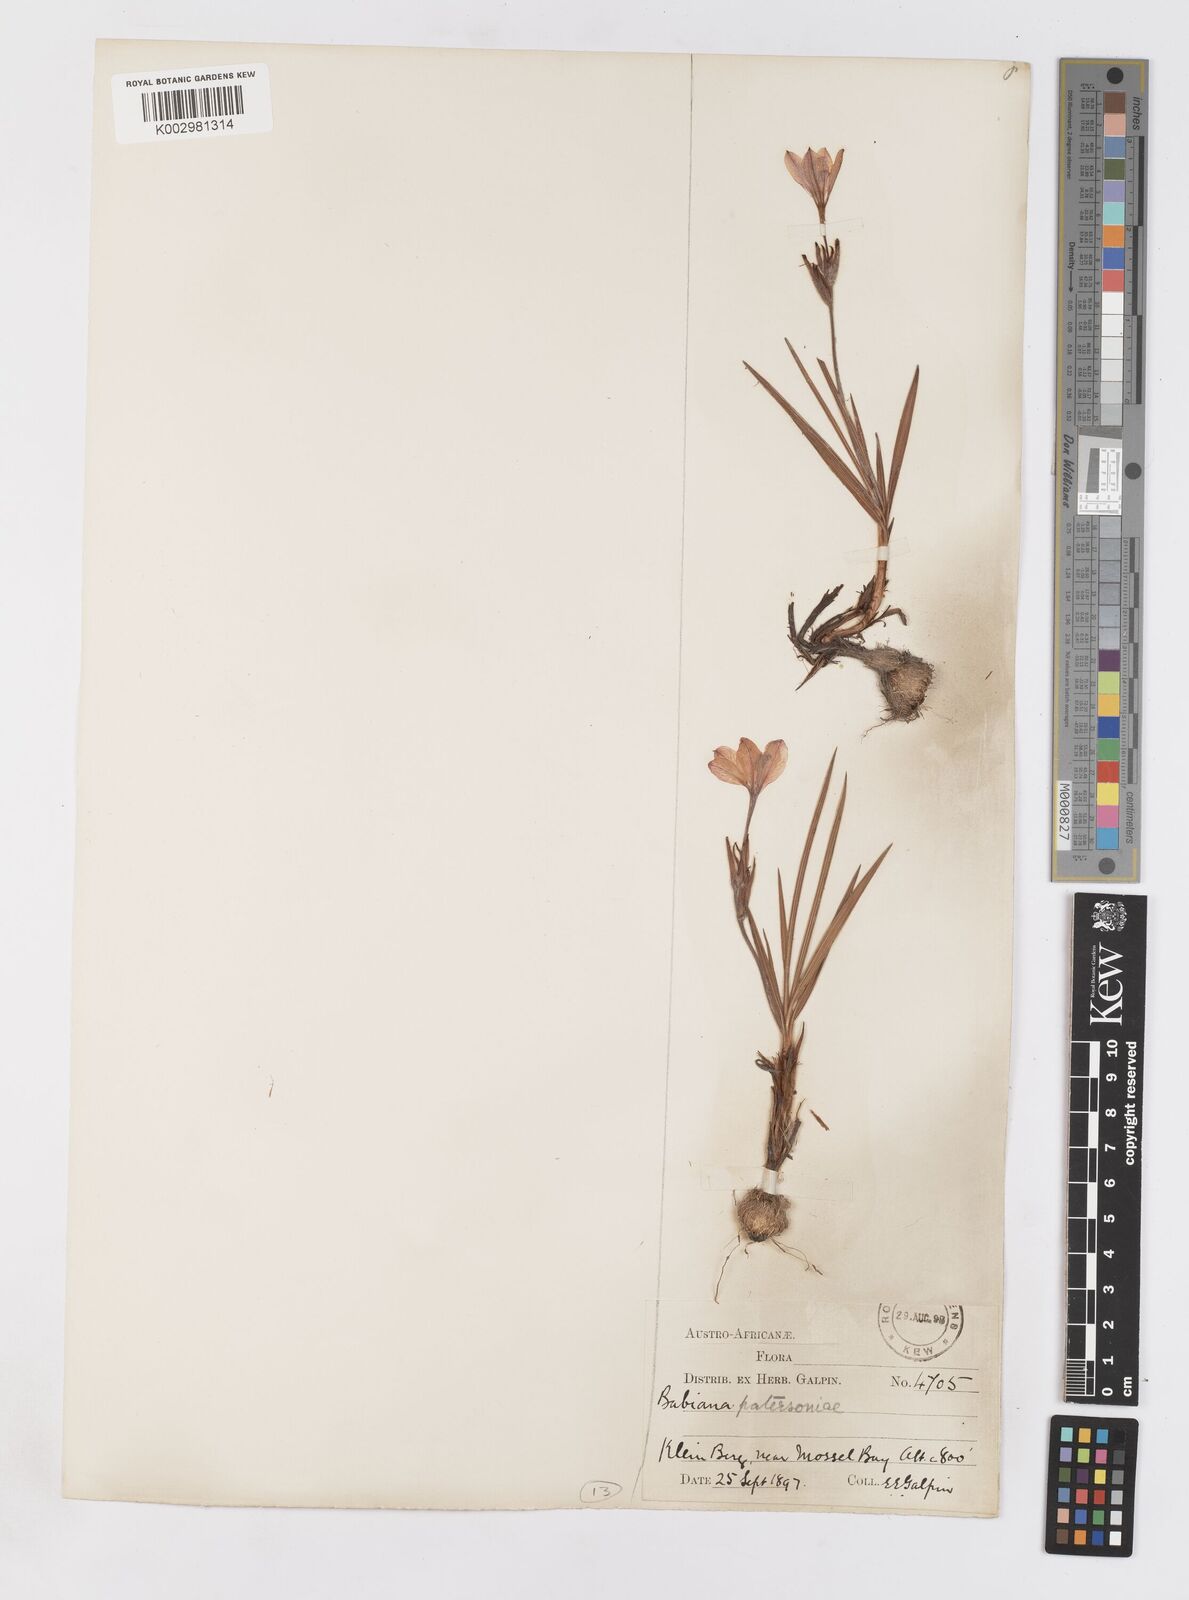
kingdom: Plantae
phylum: Tracheophyta
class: Liliopsida
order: Asparagales
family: Iridaceae
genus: Babiana
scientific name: Babiana patersoniae
